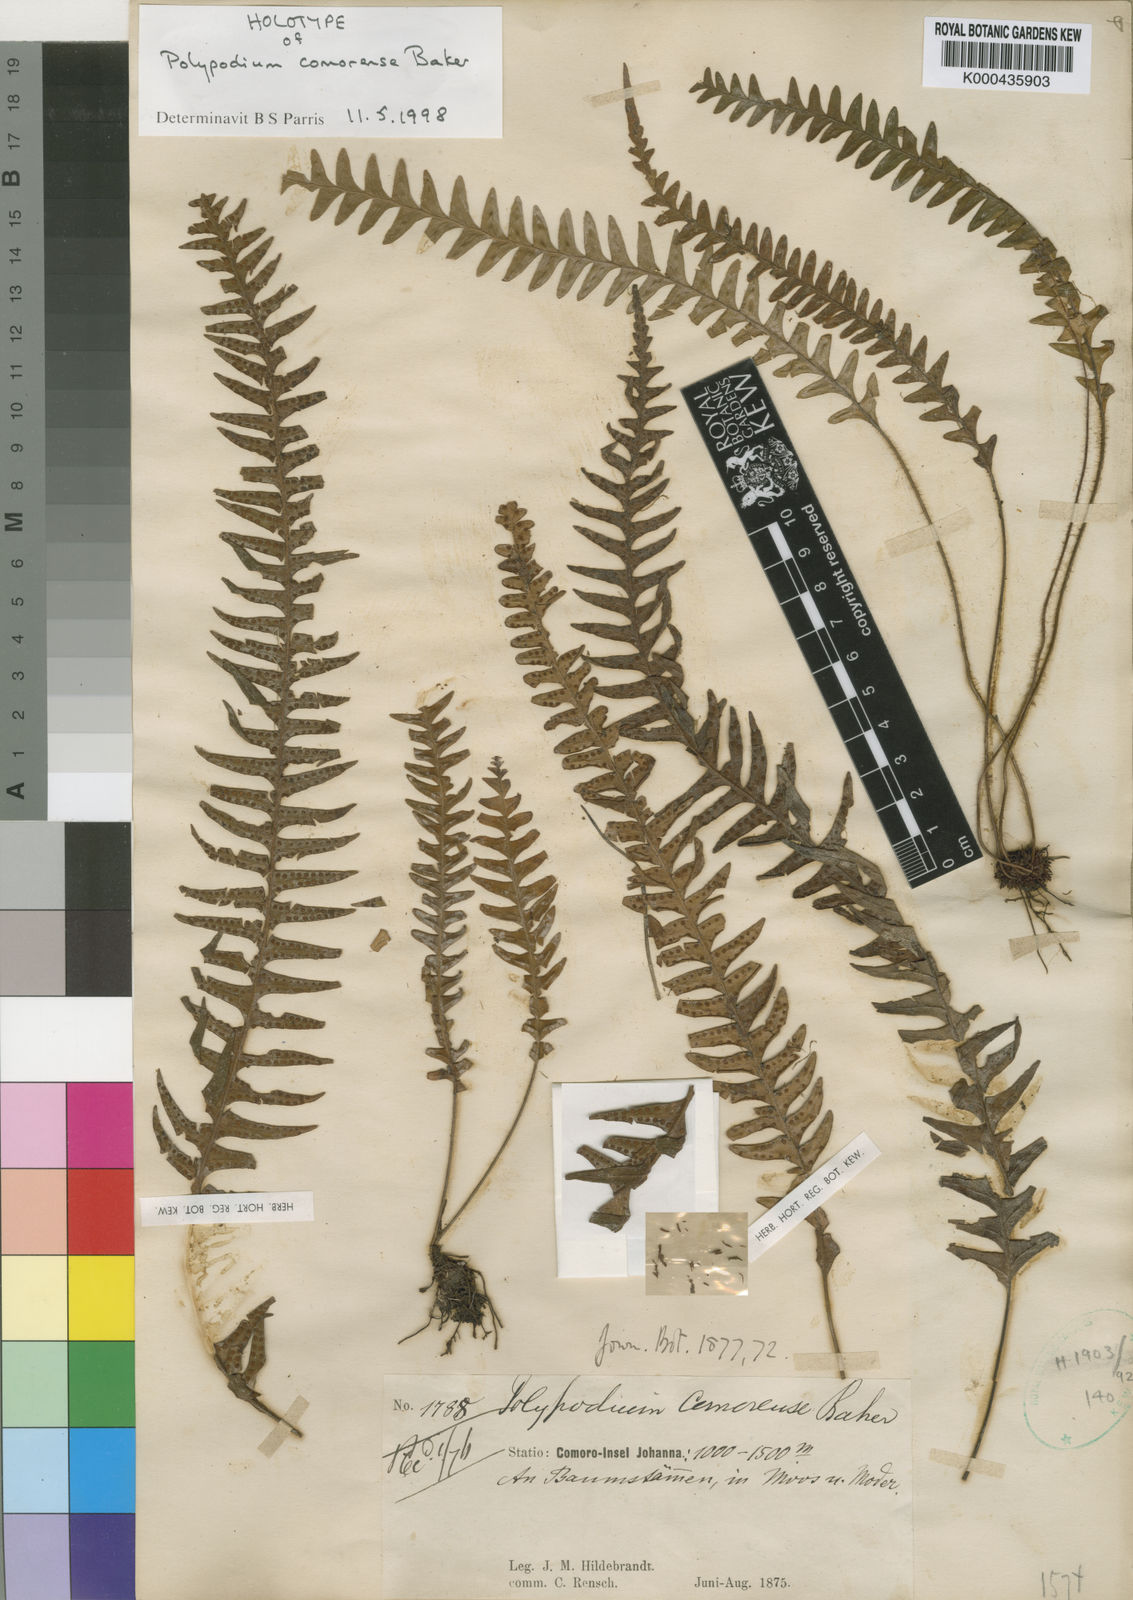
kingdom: Plantae
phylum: Tracheophyta
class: Polypodiopsida
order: Polypodiales
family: Polypodiaceae
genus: Grammitis
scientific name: Grammitis
